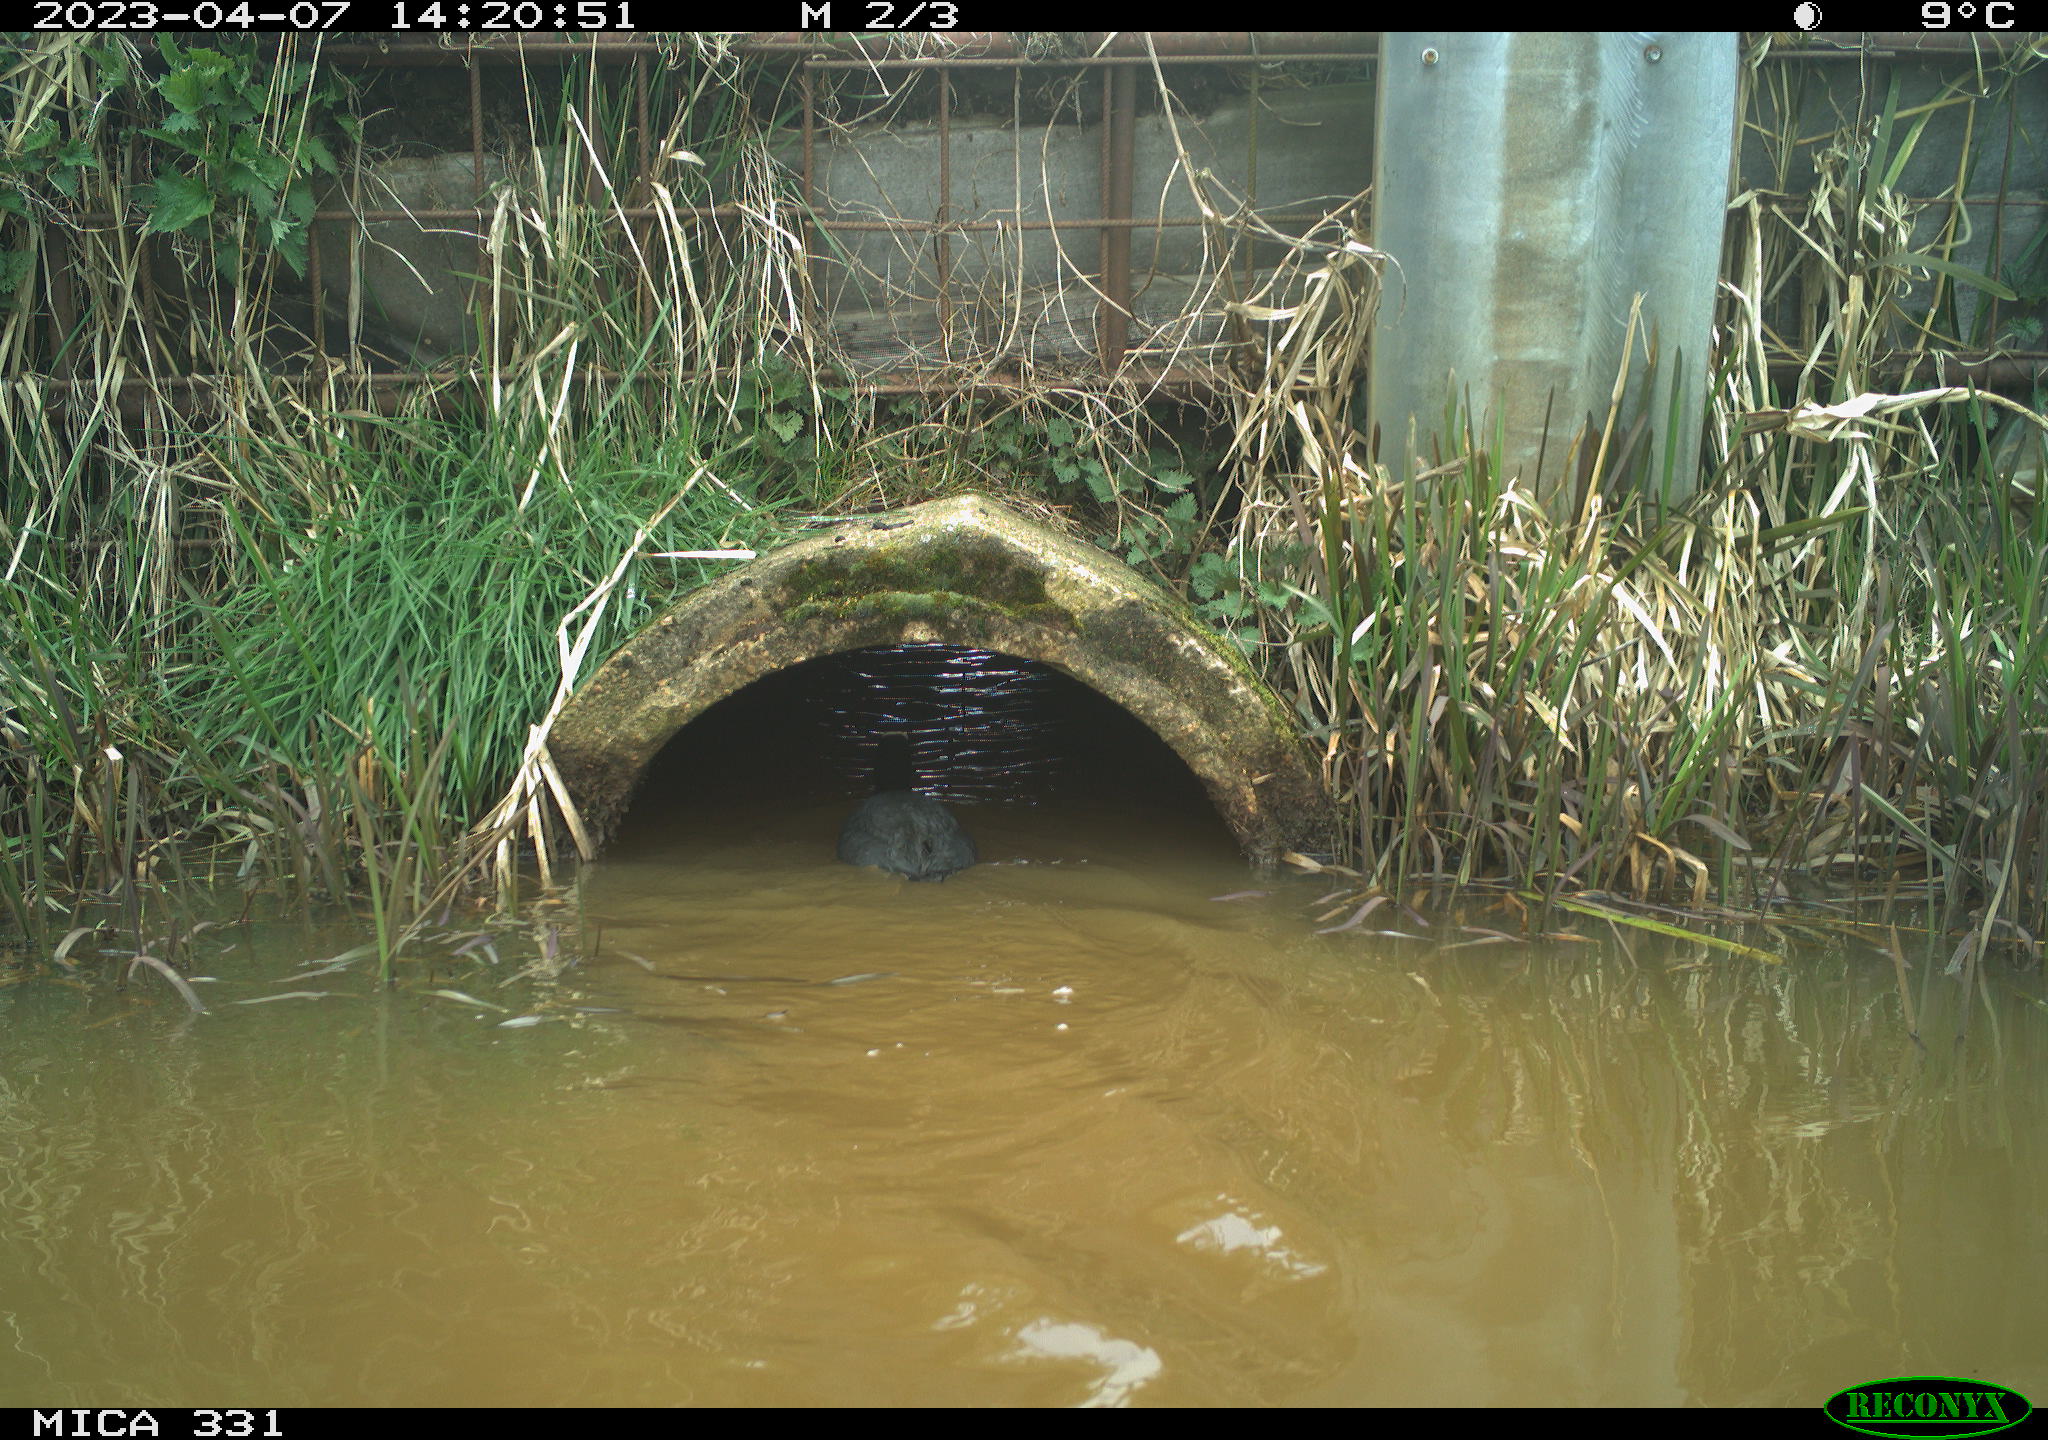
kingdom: Animalia
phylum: Chordata
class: Aves
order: Gruiformes
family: Rallidae
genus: Gallinula
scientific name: Gallinula chloropus
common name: Common moorhen
